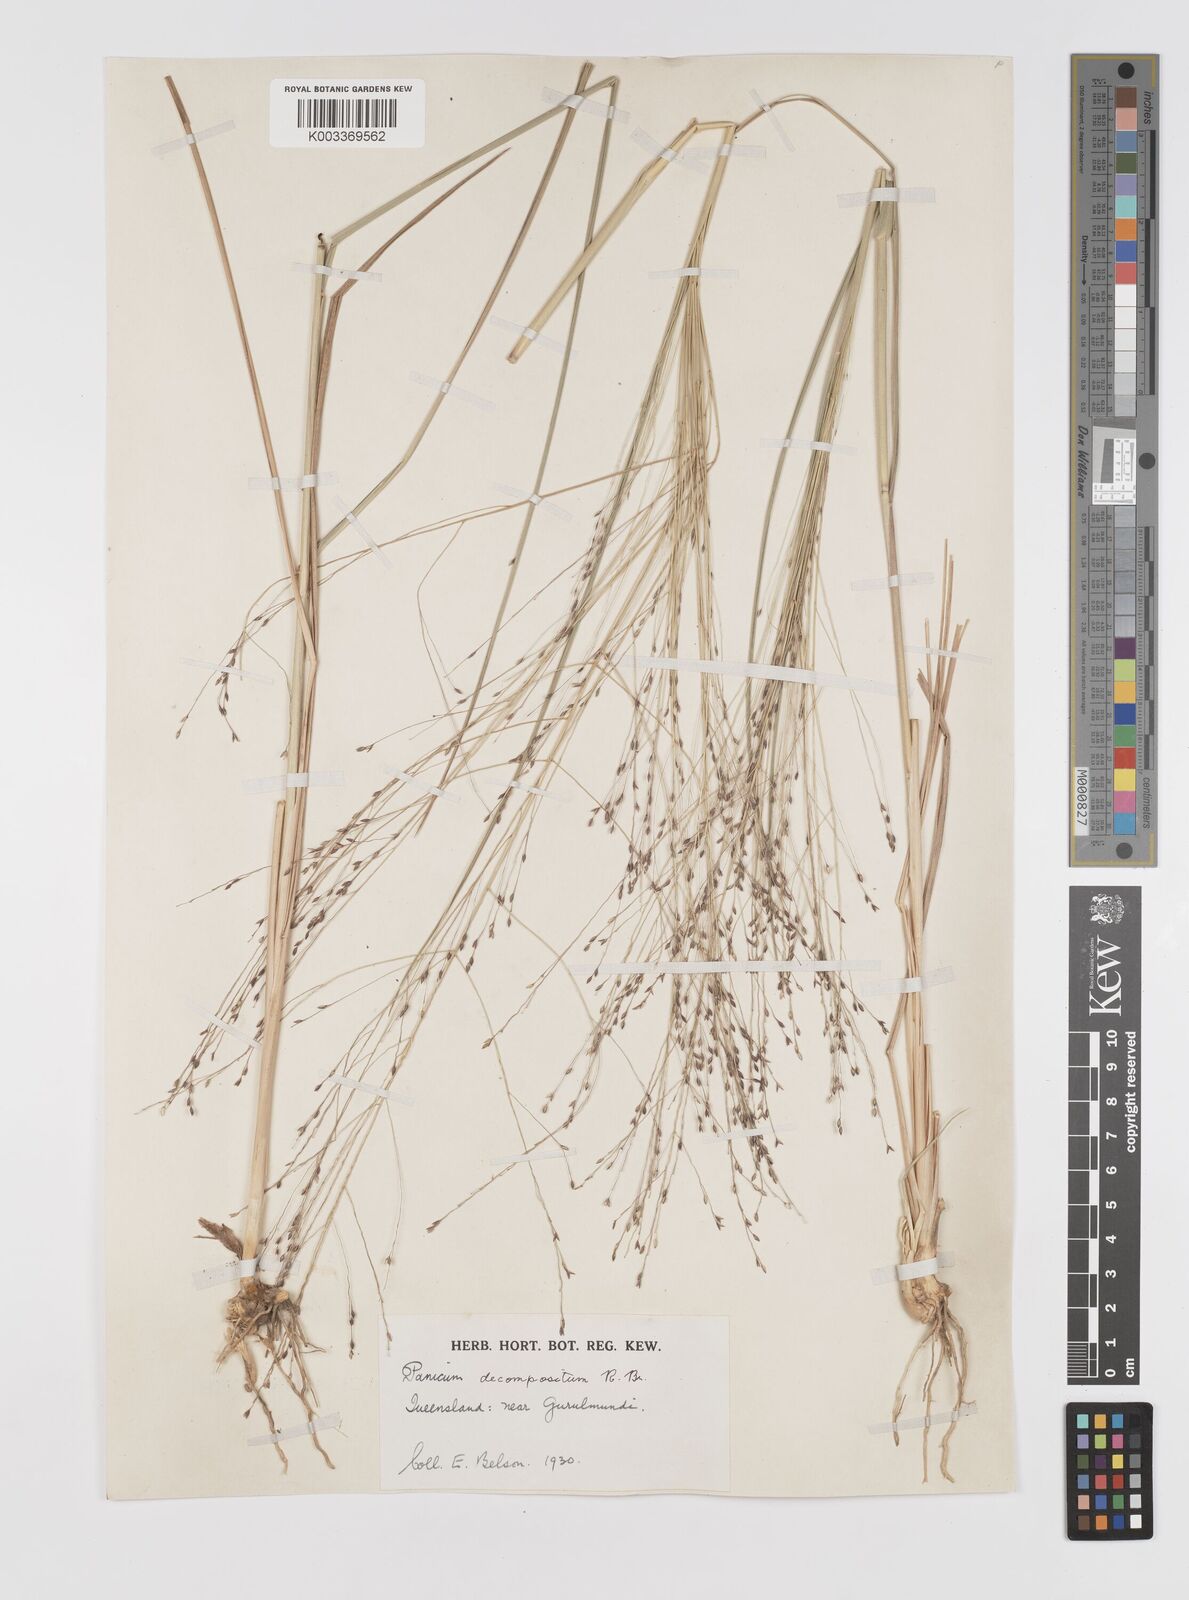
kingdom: Plantae
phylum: Tracheophyta
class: Liliopsida
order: Poales
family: Poaceae
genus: Panicum
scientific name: Panicum decompositum
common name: Australian millet
